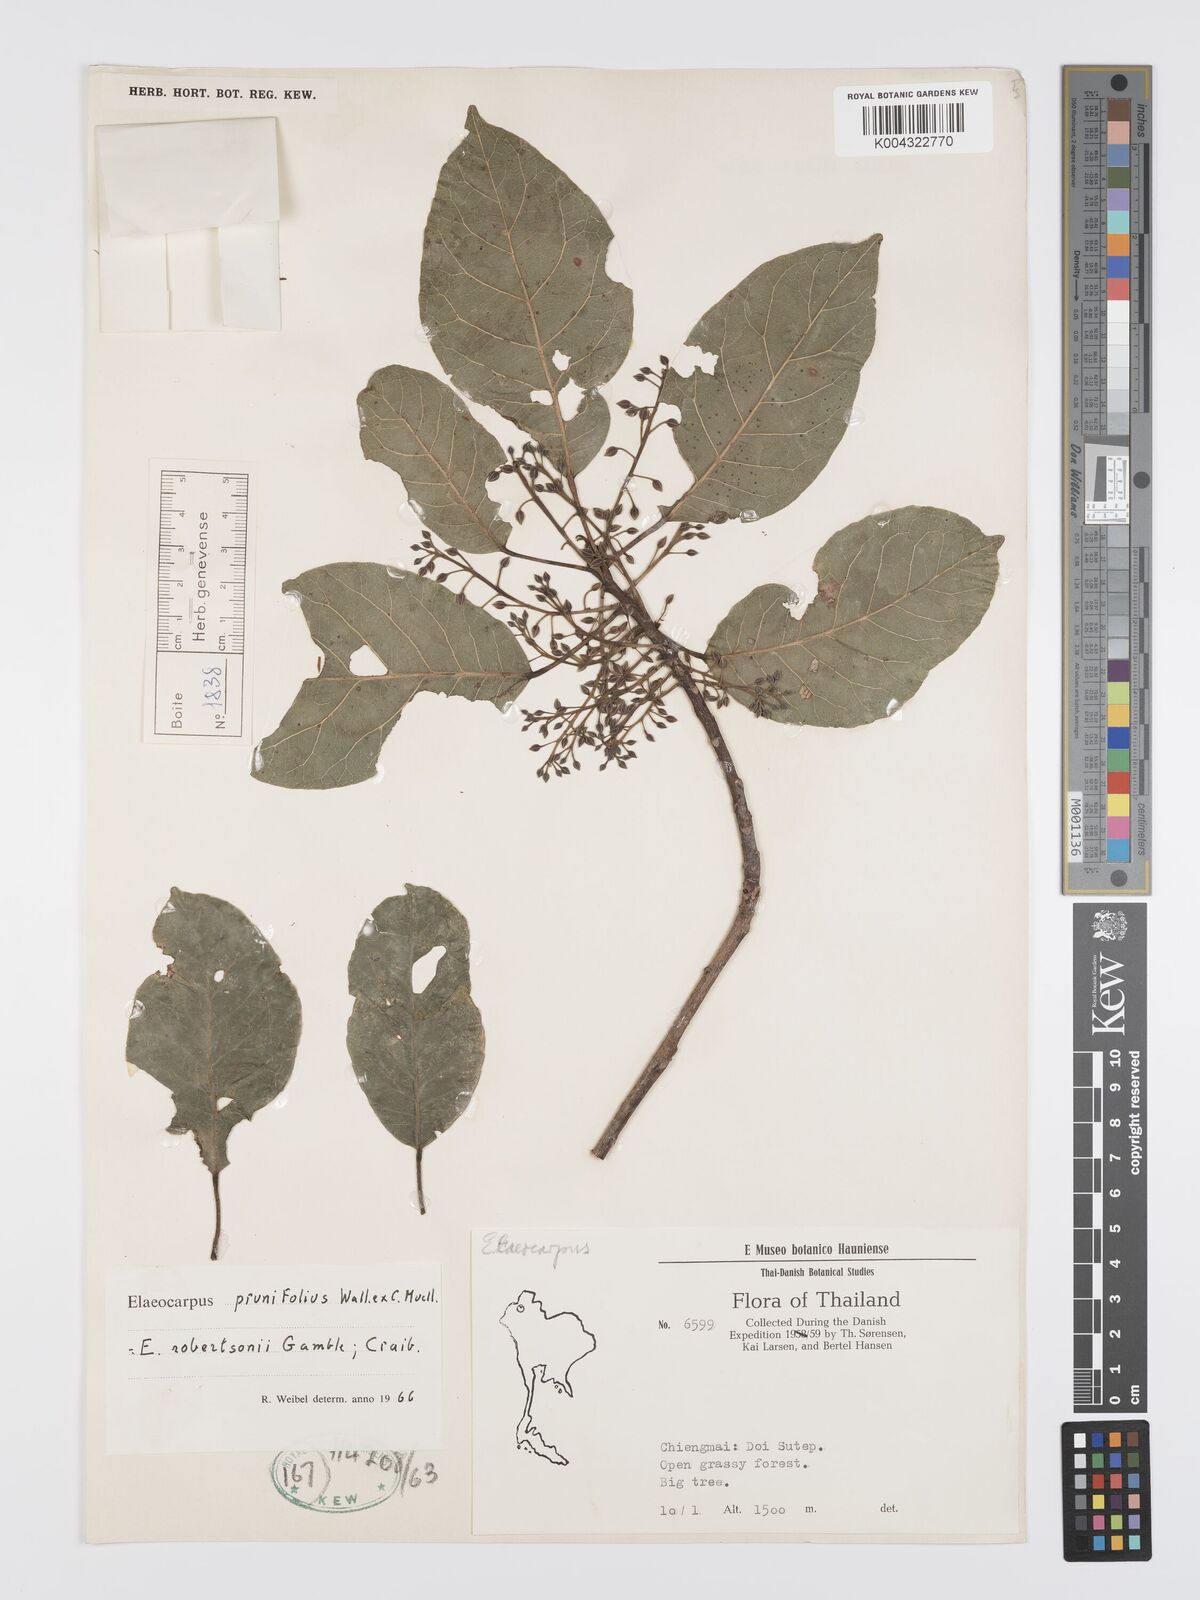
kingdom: Plantae
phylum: Tracheophyta
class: Magnoliopsida
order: Oxalidales
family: Elaeocarpaceae
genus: Elaeocarpus
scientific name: Elaeocarpus
